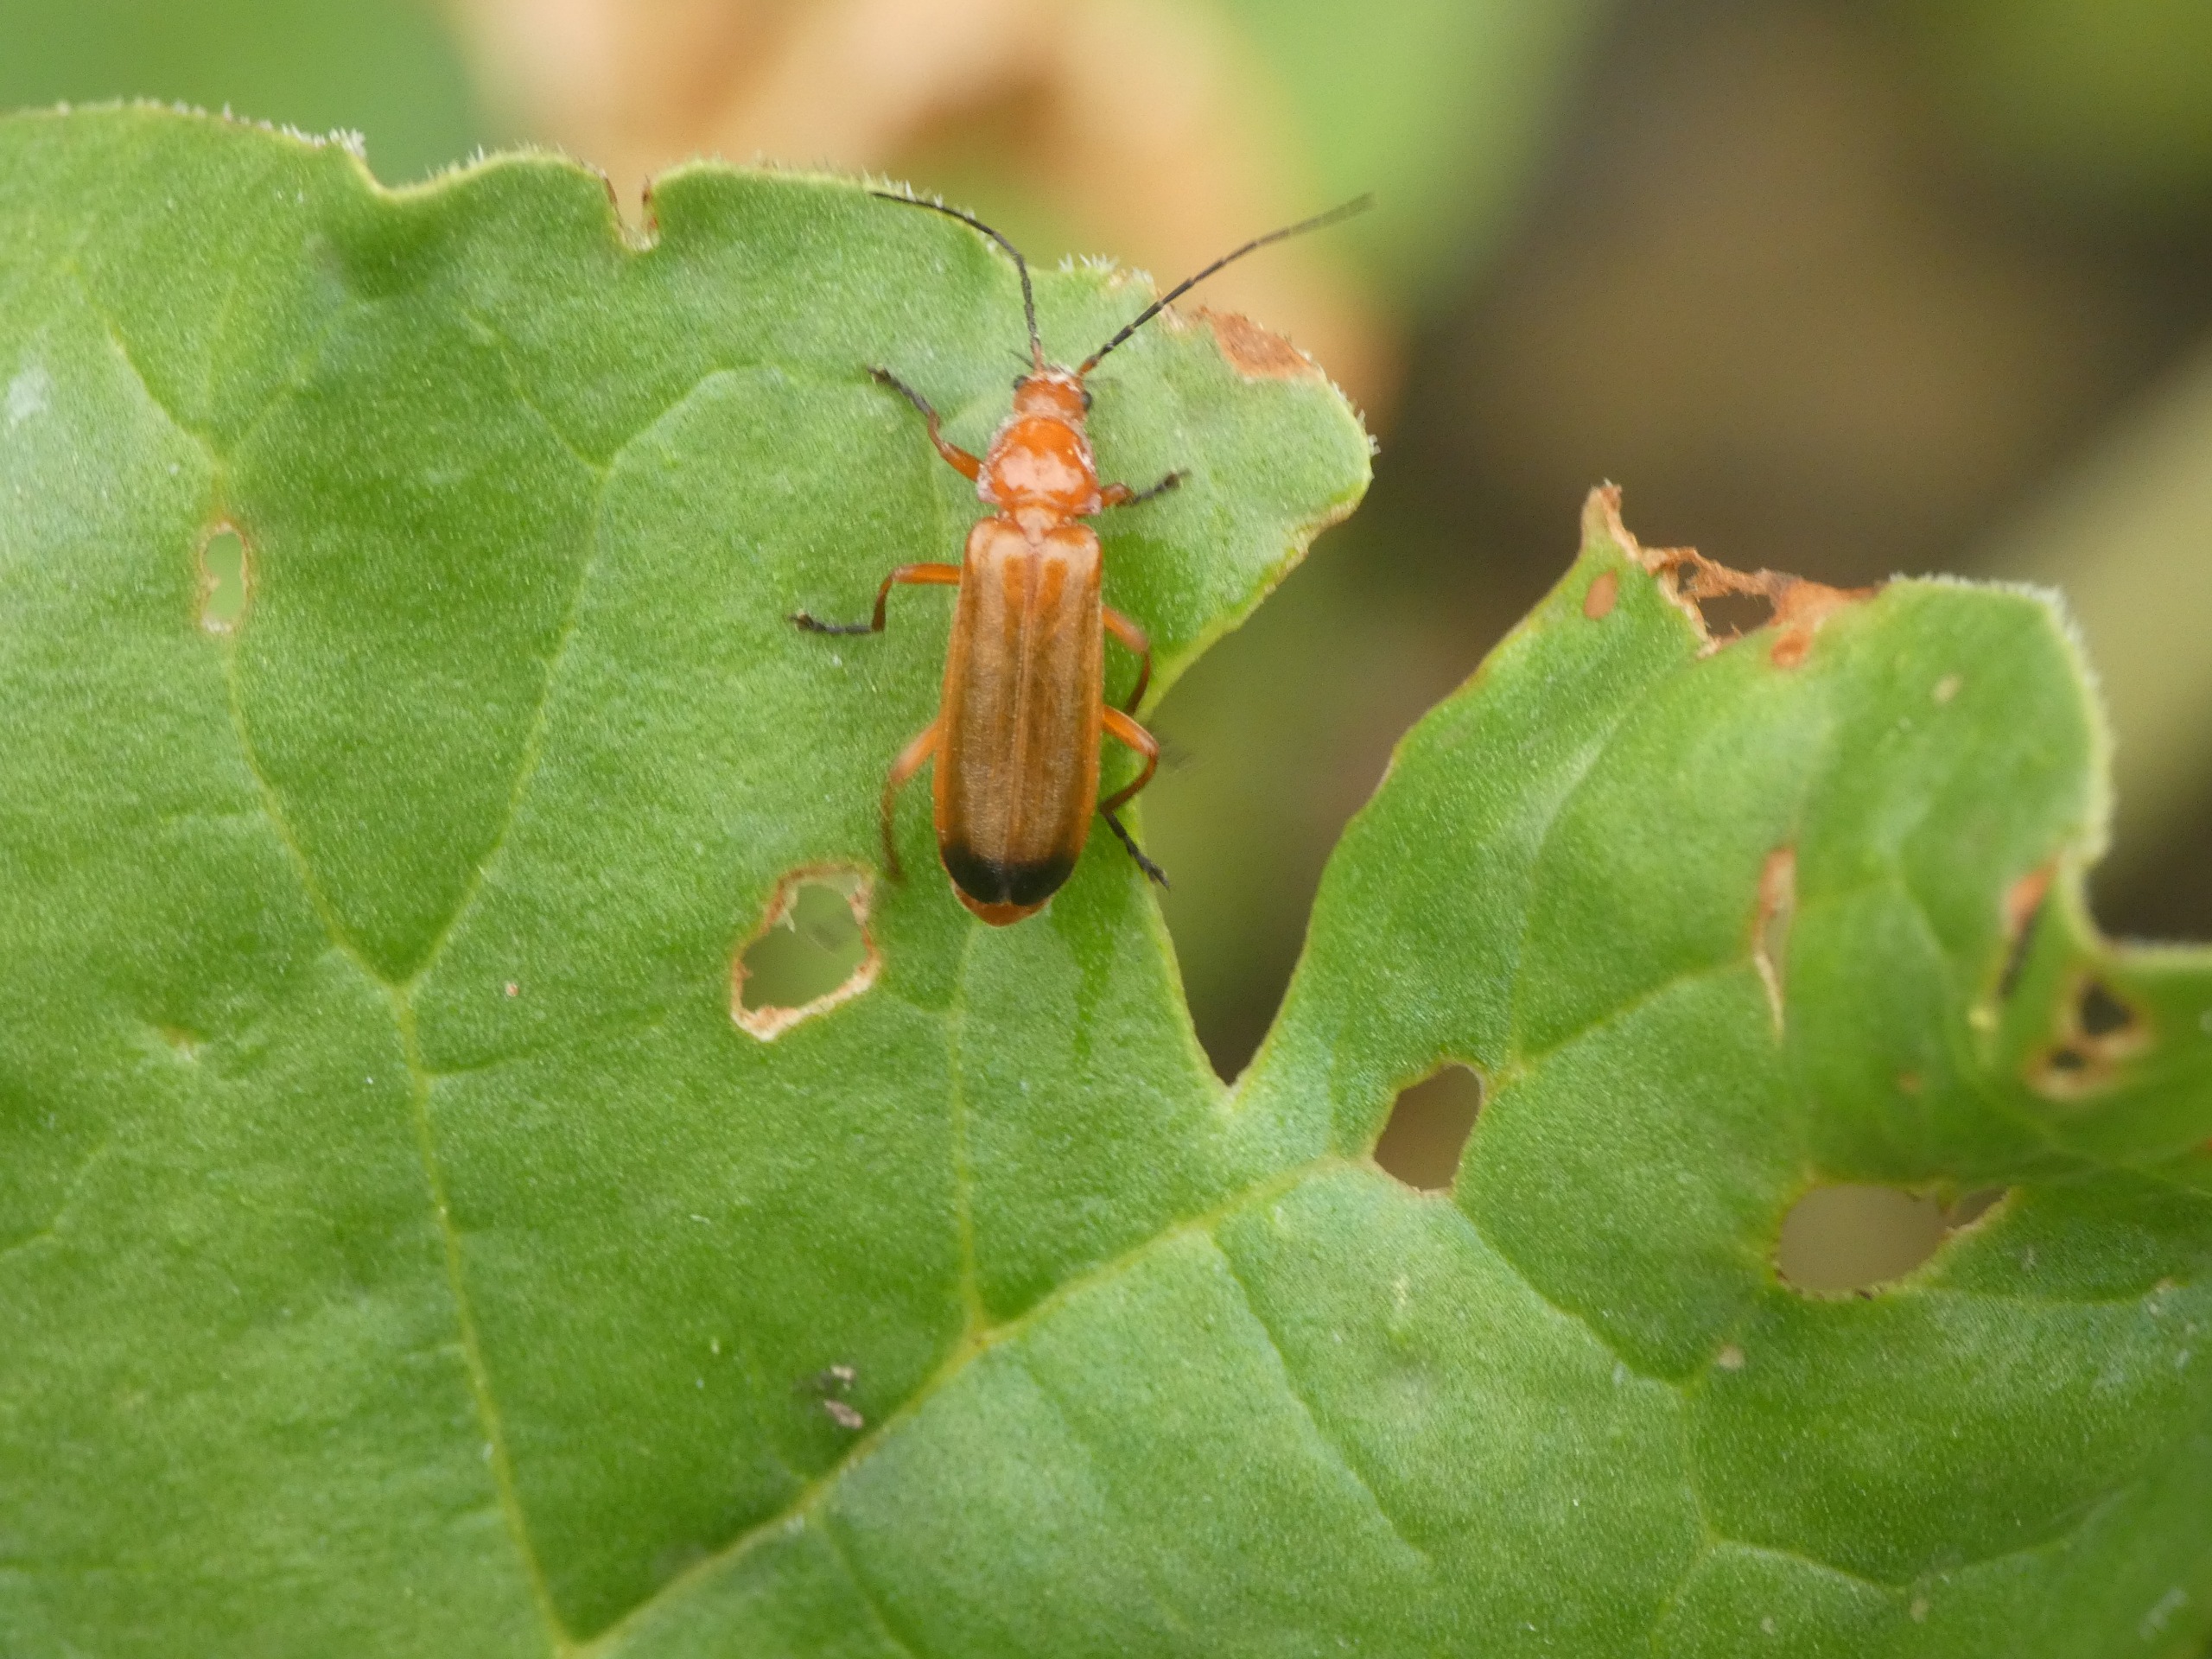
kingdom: Animalia
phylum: Arthropoda
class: Insecta
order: Coleoptera
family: Cantharidae
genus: Rhagonycha
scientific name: Rhagonycha fulva
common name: Præstebille
